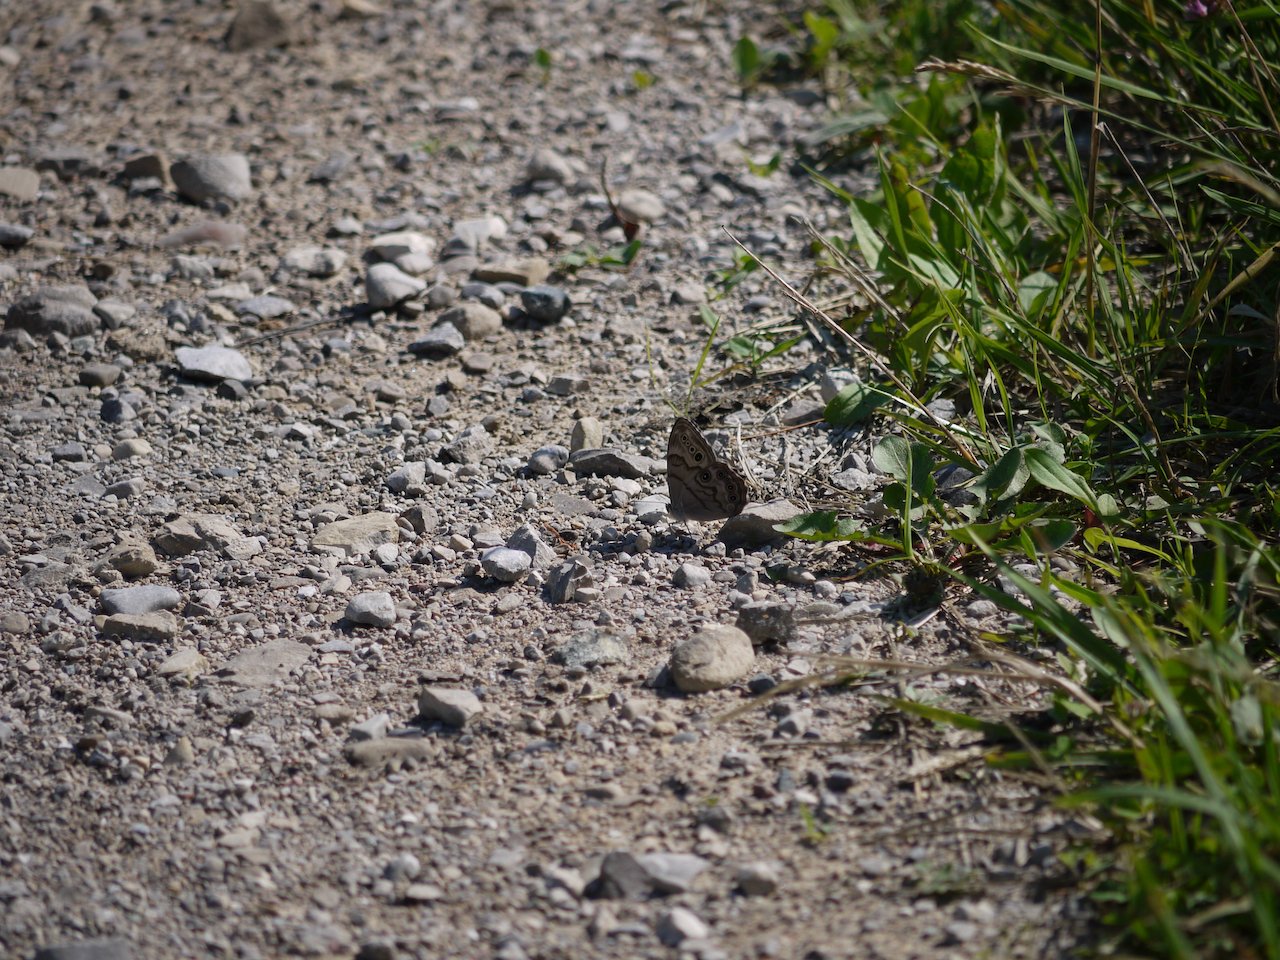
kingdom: Animalia
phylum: Arthropoda
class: Insecta
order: Lepidoptera
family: Nymphalidae
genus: Lethe
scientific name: Lethe anthedon
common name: Northern Pearly-Eye
